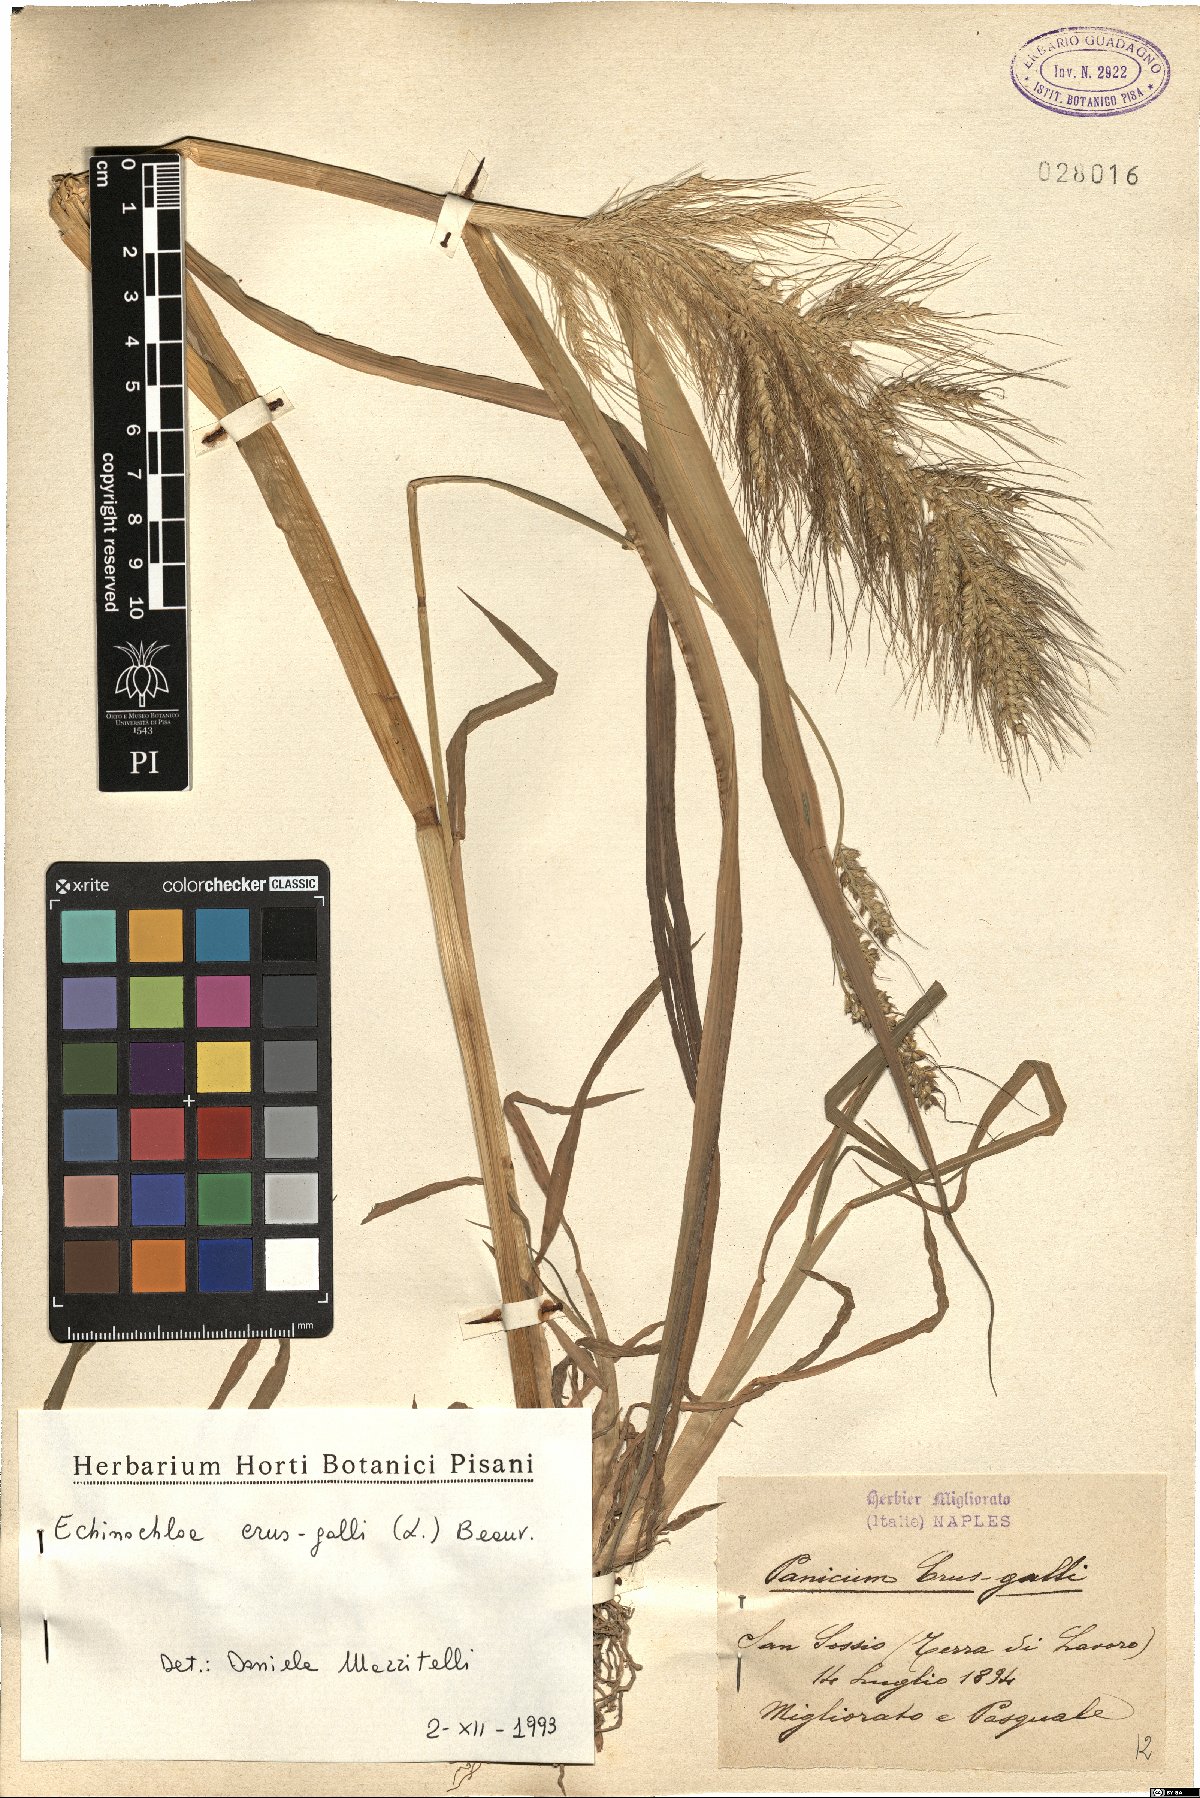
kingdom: Plantae
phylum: Tracheophyta
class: Liliopsida
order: Poales
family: Poaceae
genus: Echinochloa
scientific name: Echinochloa crus-galli
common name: Cockspur
